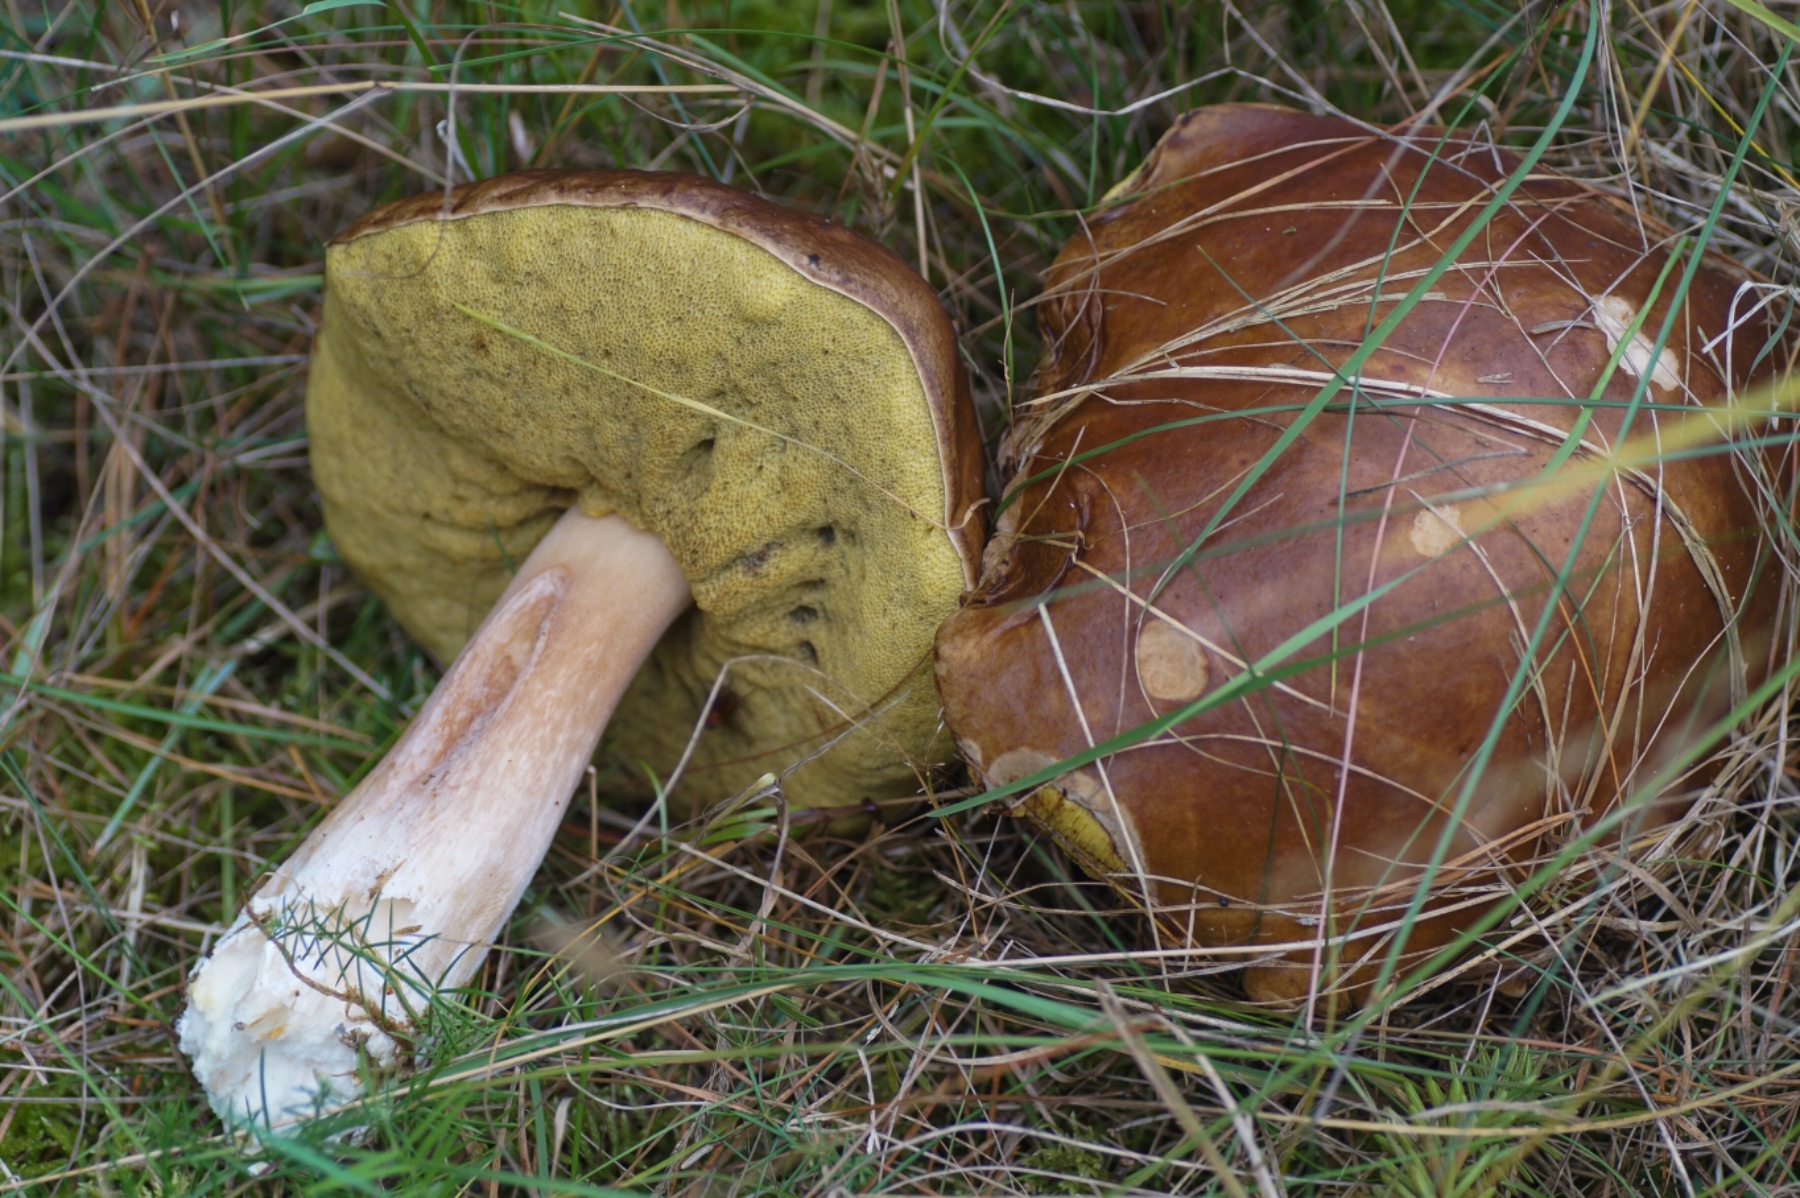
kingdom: Fungi
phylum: Basidiomycota
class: Agaricomycetes
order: Boletales
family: Boletaceae
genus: Boletus
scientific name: Boletus edulis
